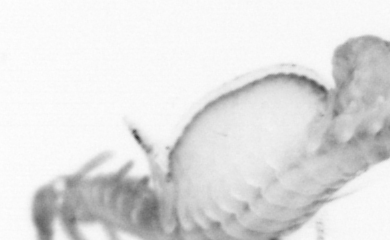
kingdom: Animalia
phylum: Annelida
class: Polychaeta
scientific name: Polychaeta
